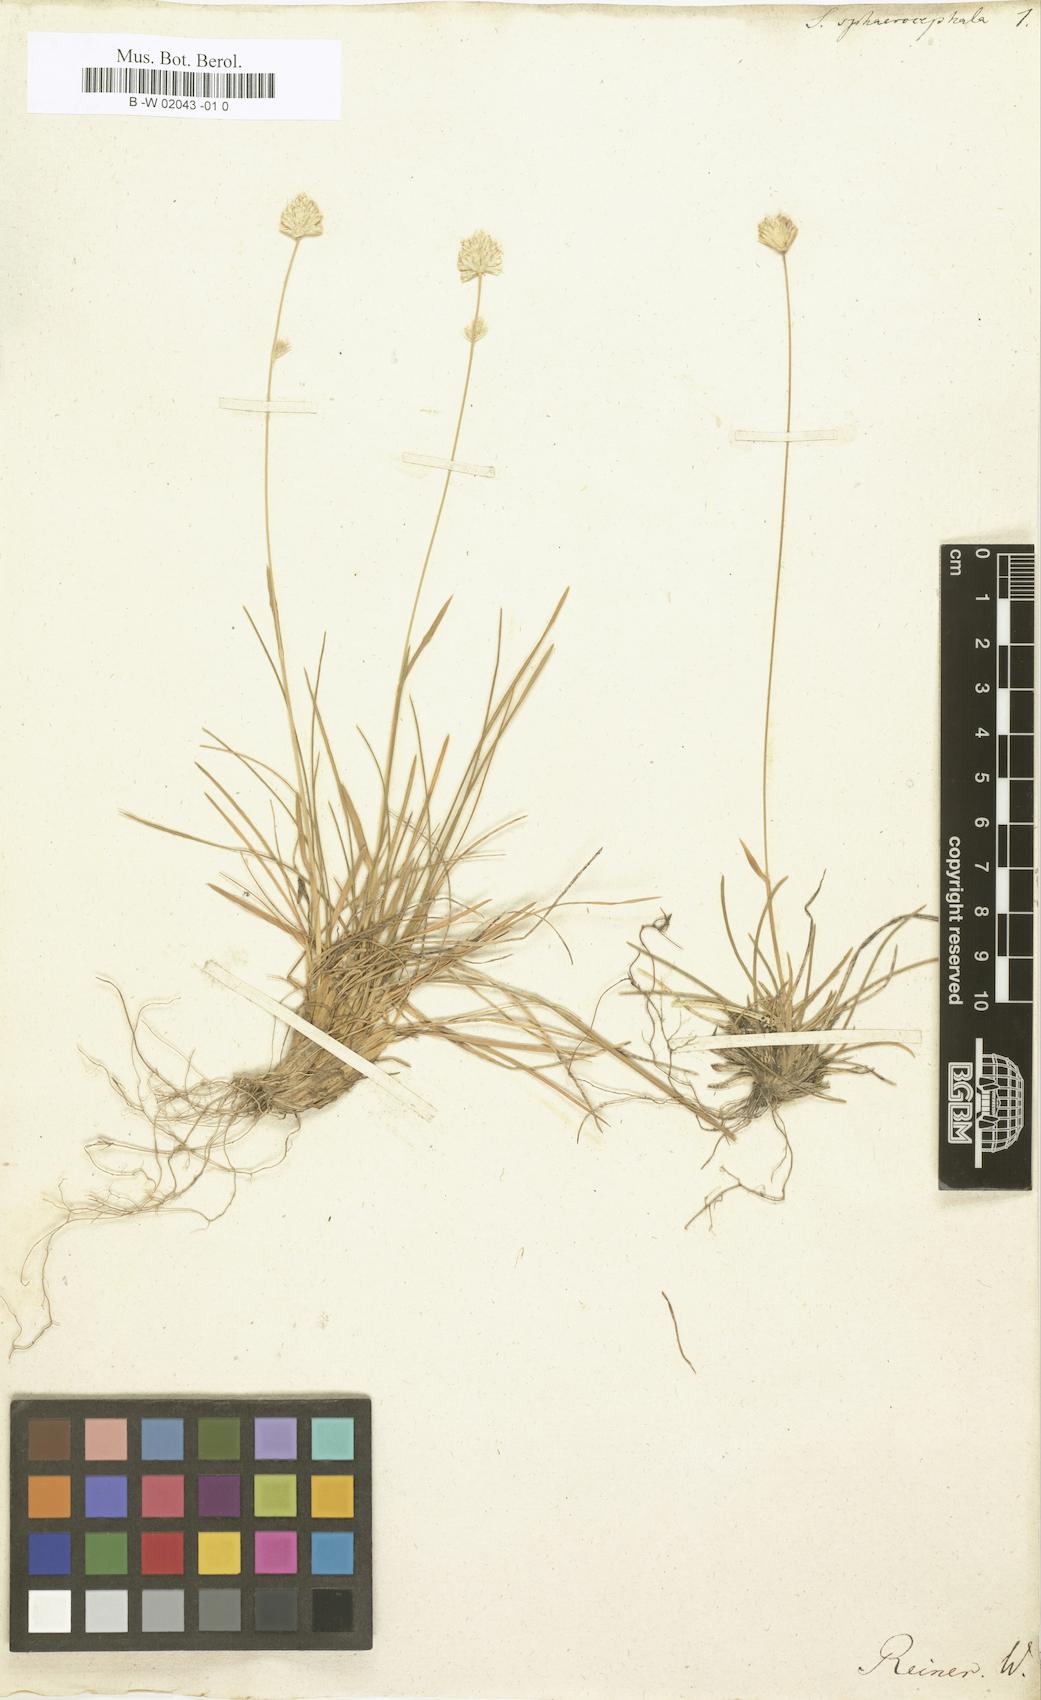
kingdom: Plantae
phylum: Tracheophyta
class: Liliopsida
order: Poales
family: Poaceae
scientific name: Poaceae
